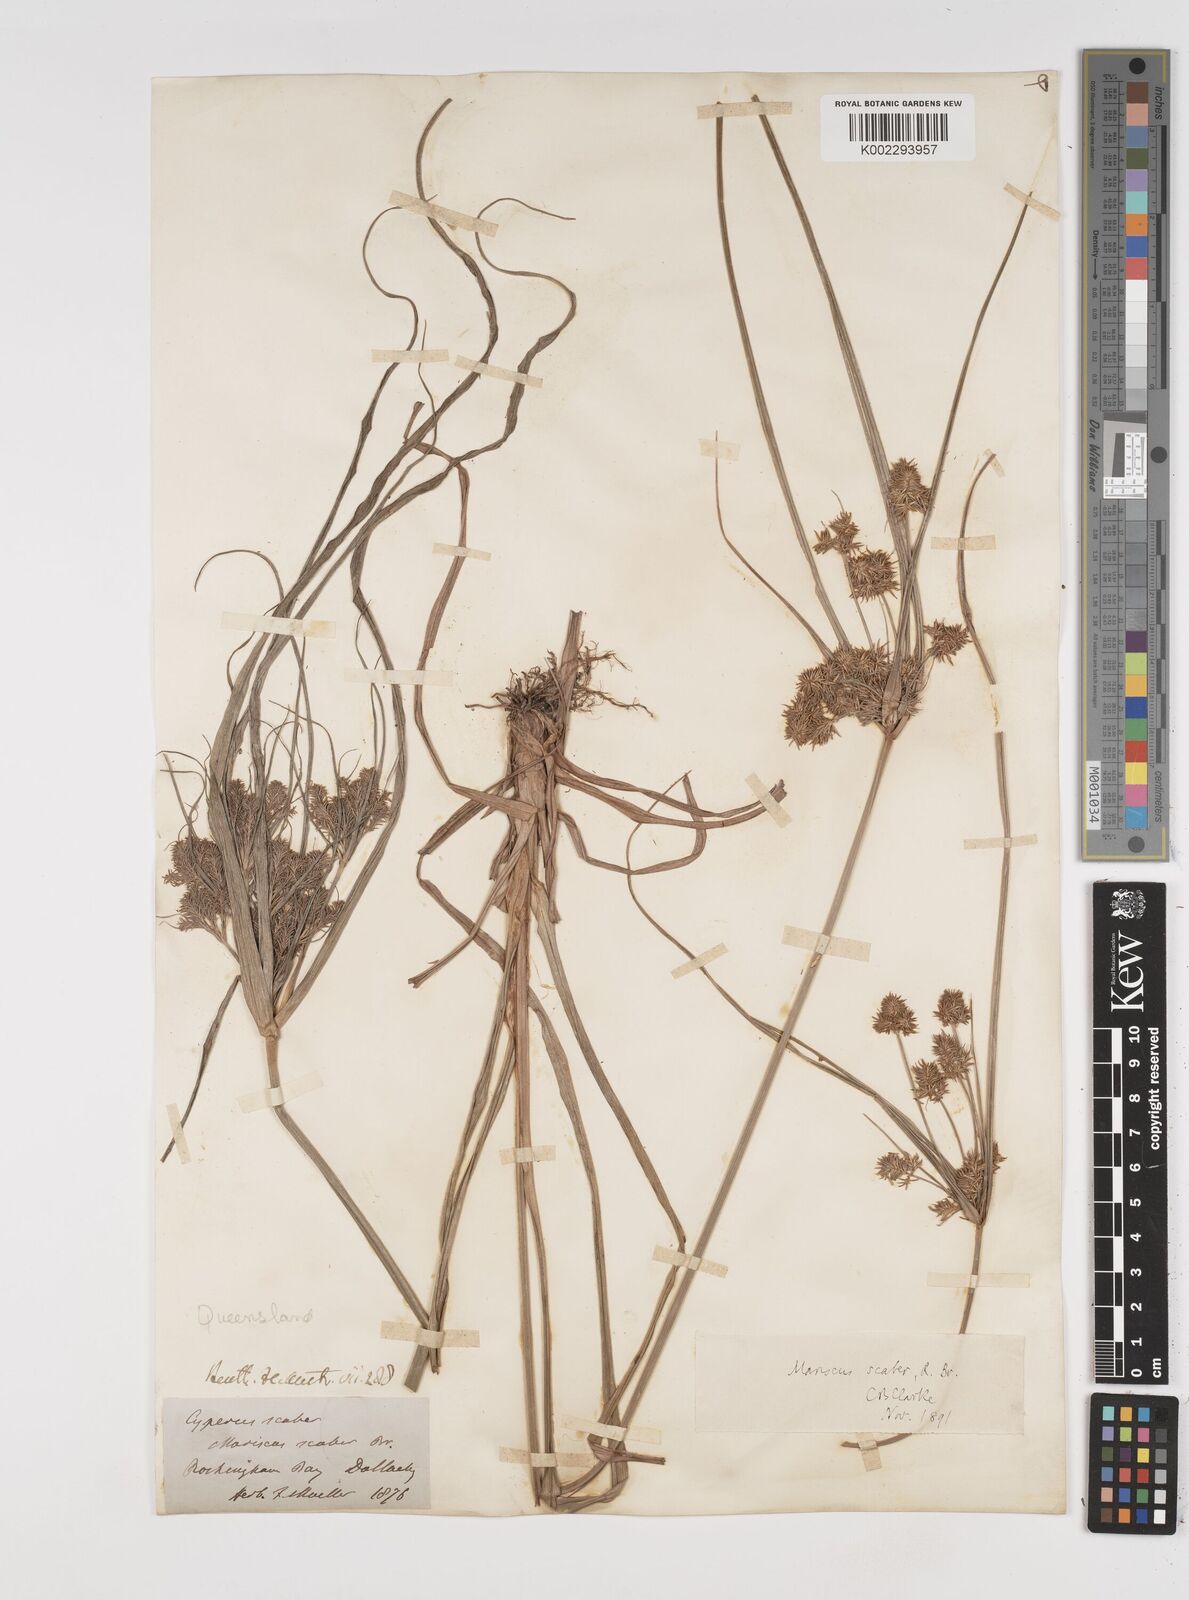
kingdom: Plantae
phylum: Tracheophyta
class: Liliopsida
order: Poales
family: Cyperaceae
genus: Cyperus
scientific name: Cyperus scaber
